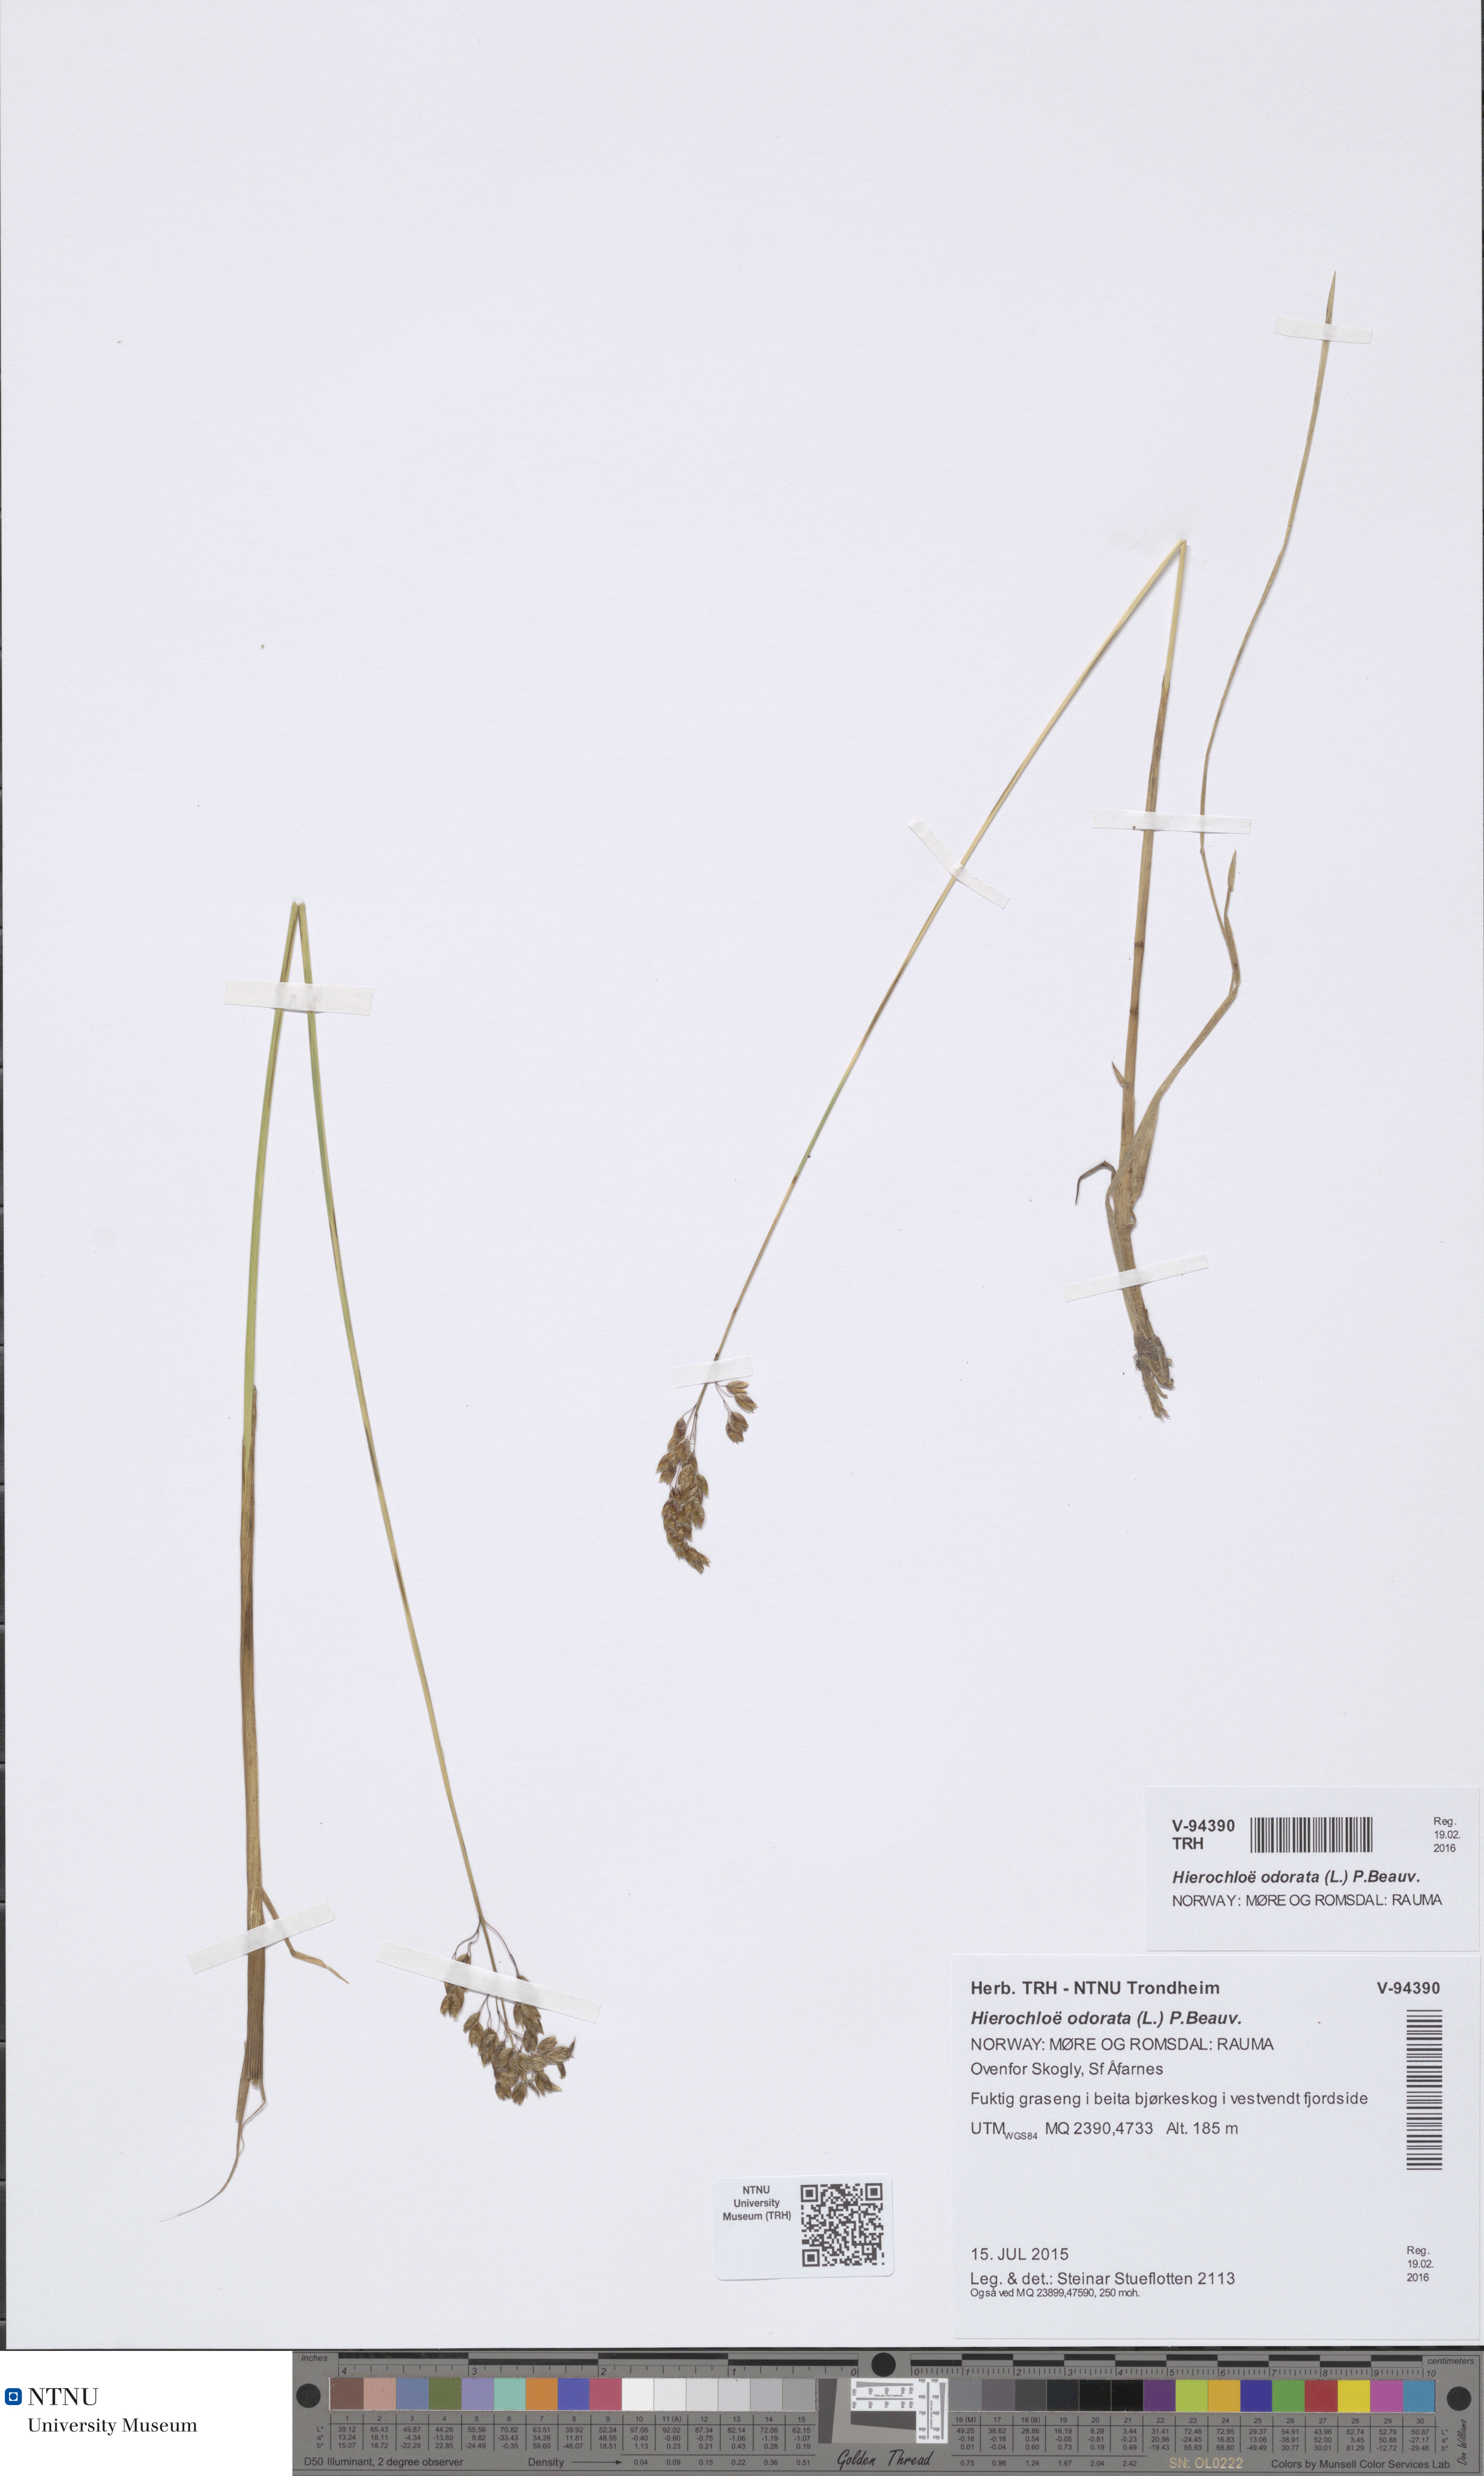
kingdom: Plantae
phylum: Tracheophyta
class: Liliopsida
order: Poales
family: Poaceae
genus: Anthoxanthum
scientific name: Anthoxanthum nitens
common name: Holy grass
